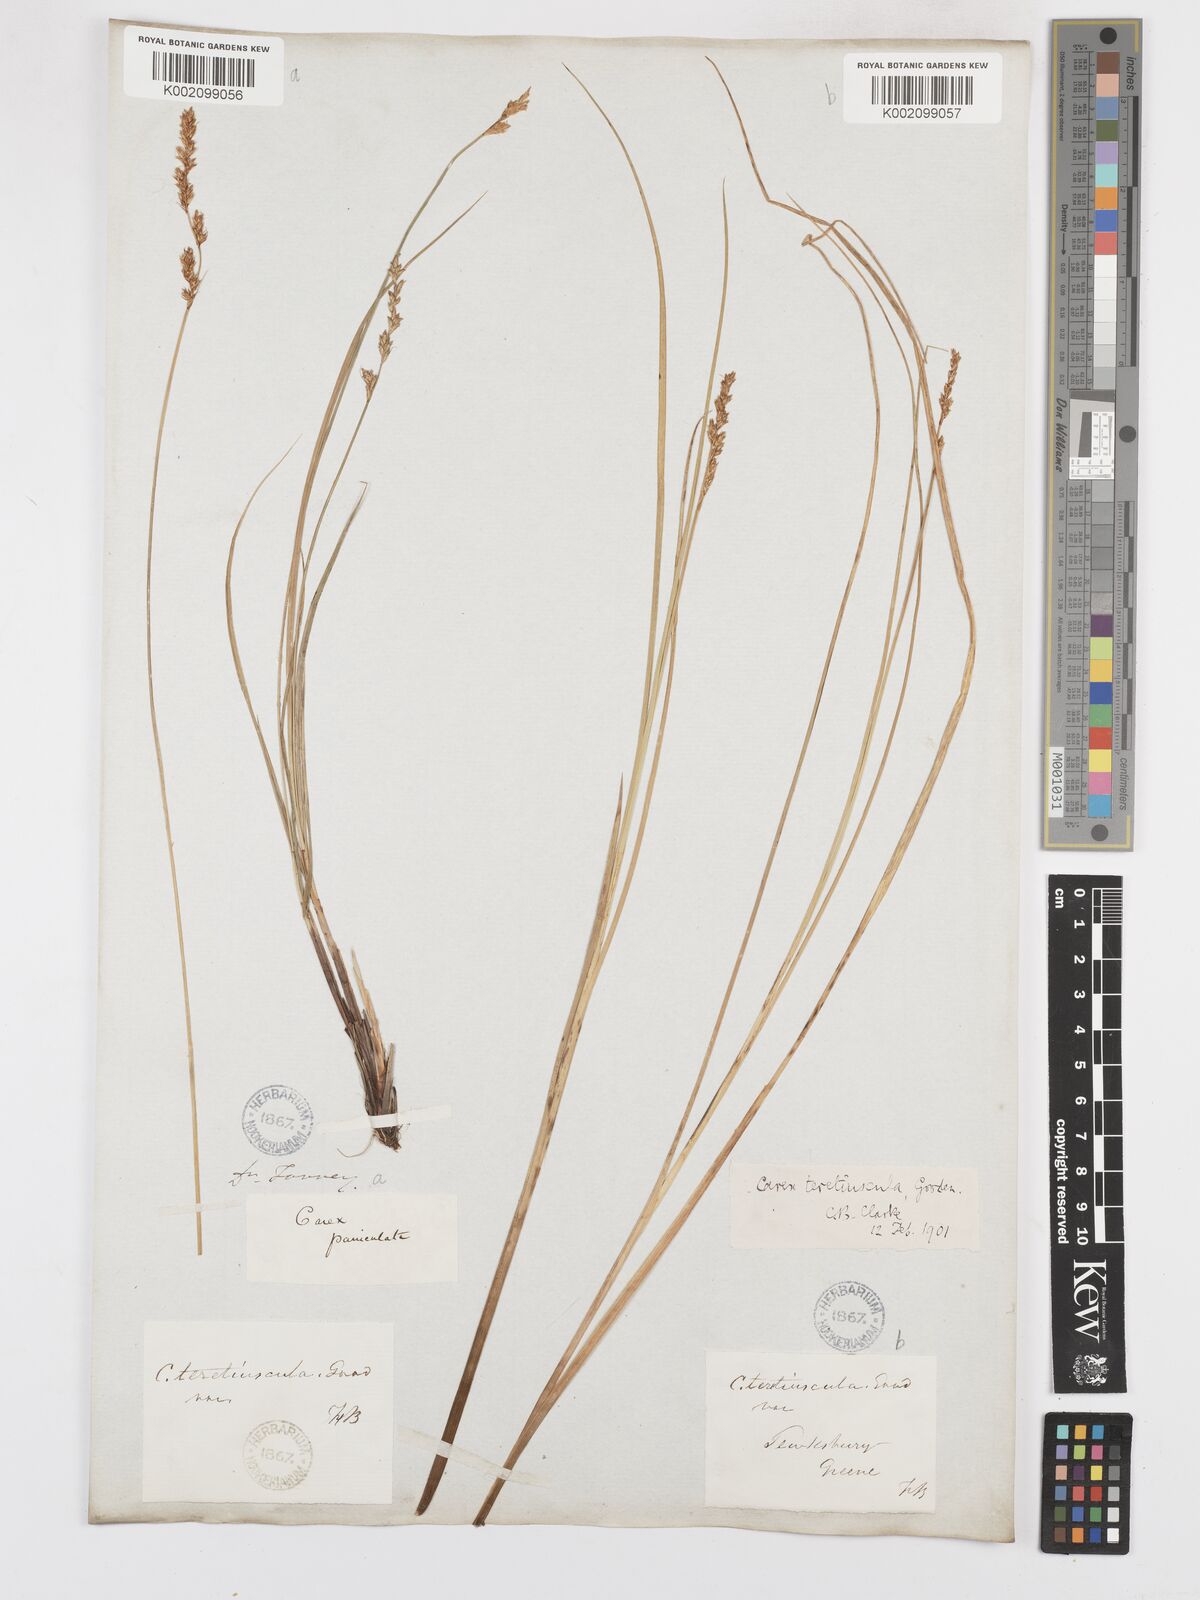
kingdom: Plantae
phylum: Tracheophyta
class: Liliopsida
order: Poales
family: Cyperaceae
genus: Carex
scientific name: Carex diandra
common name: Lesser tussock-sedge
